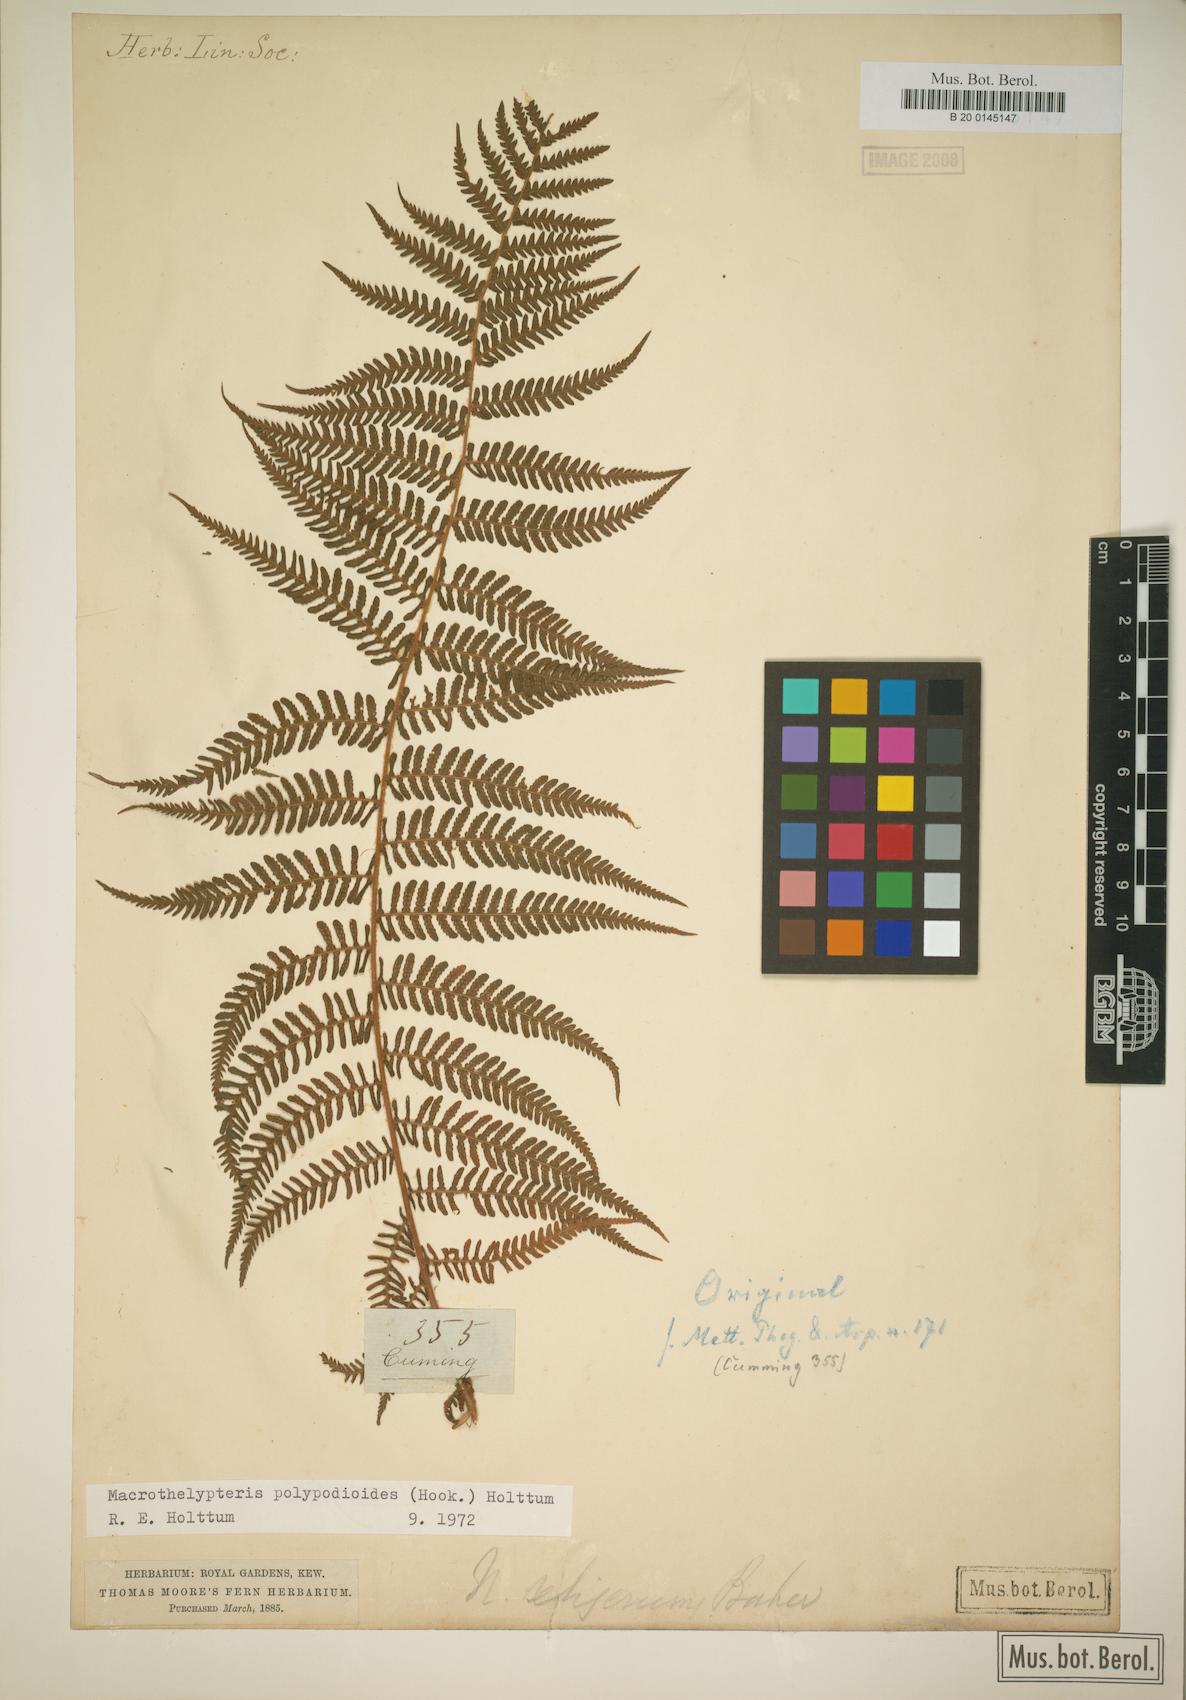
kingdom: Plantae
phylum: Tracheophyta
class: Polypodiopsida
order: Polypodiales
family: Thelypteridaceae
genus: Macrothelypteris
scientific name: Macrothelypteris polypodioides
